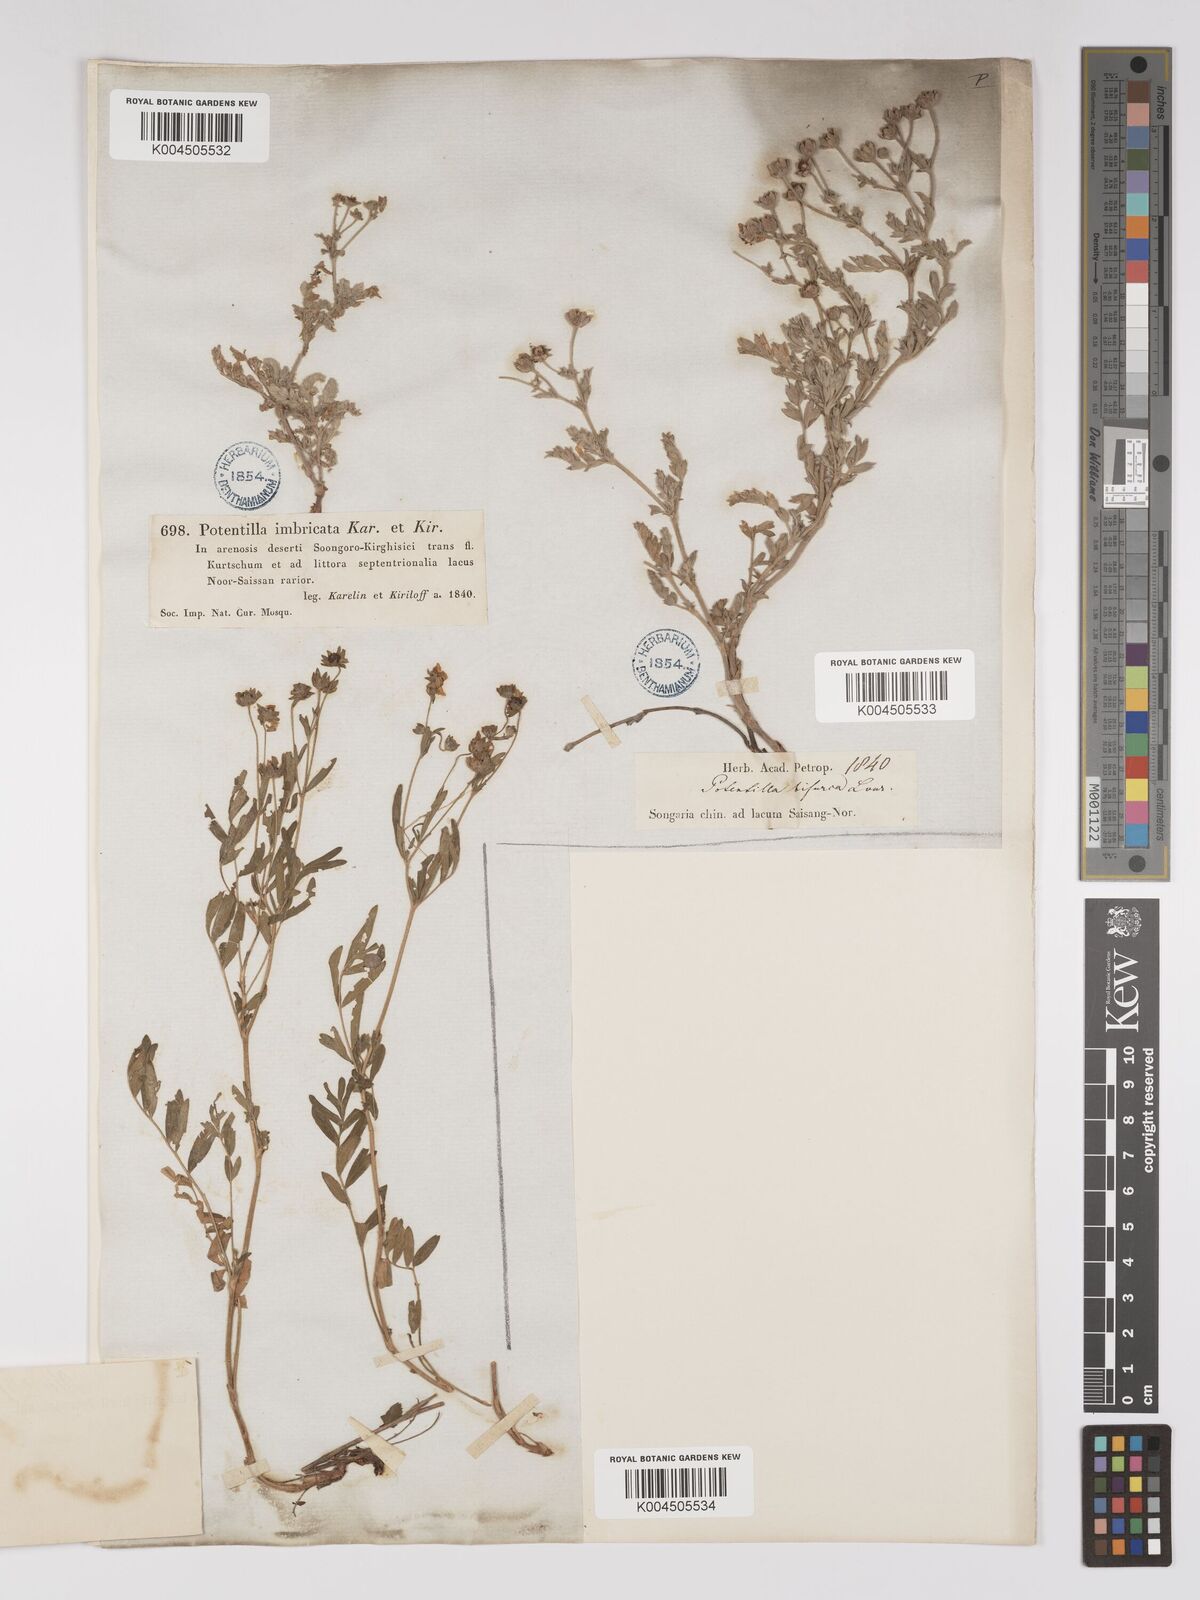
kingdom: Plantae
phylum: Tracheophyta
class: Magnoliopsida
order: Rosales
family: Rosaceae
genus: Sibbaldianthe
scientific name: Sibbaldianthe bifurca
